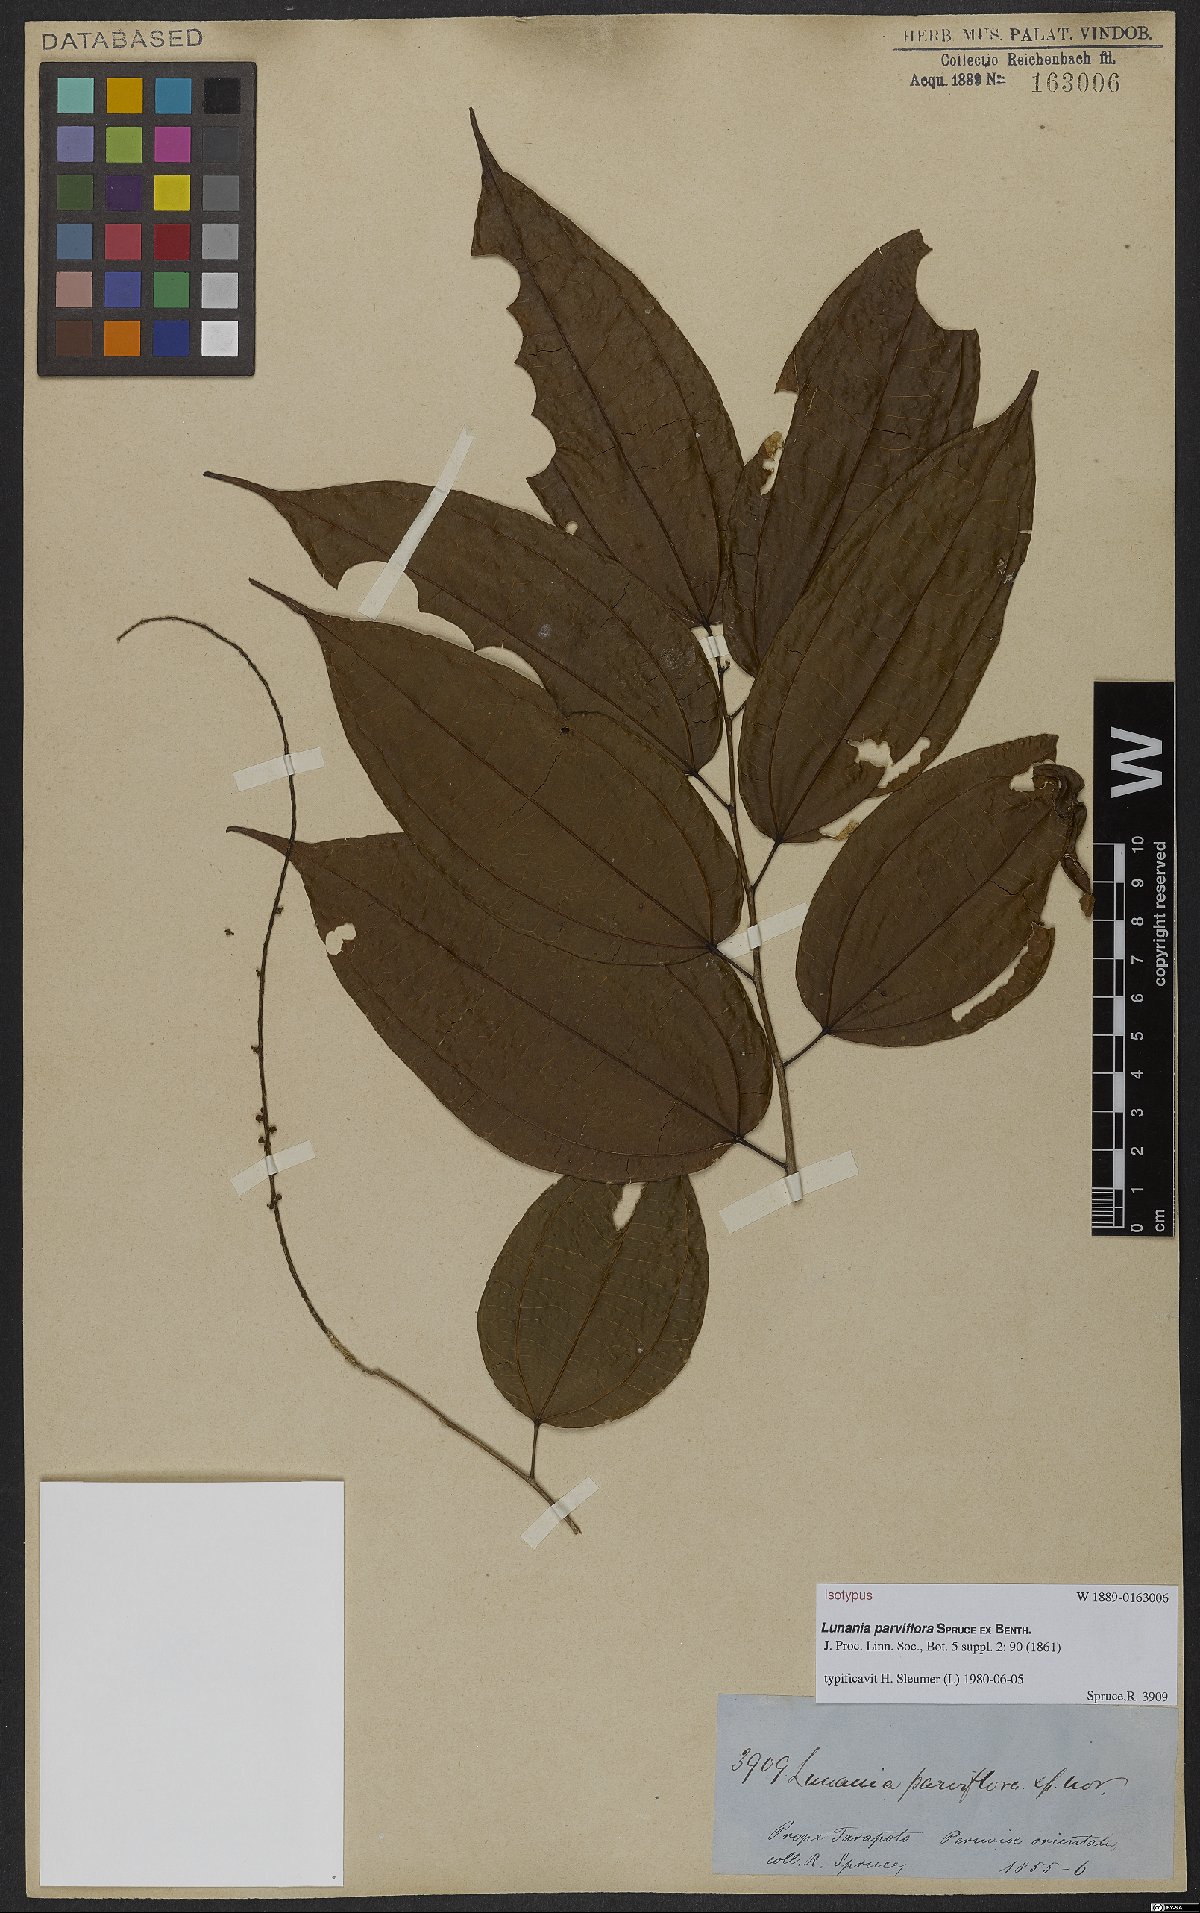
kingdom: Plantae
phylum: Tracheophyta
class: Magnoliopsida
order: Malpighiales
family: Salicaceae
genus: Lunania
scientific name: Lunania parviflora
